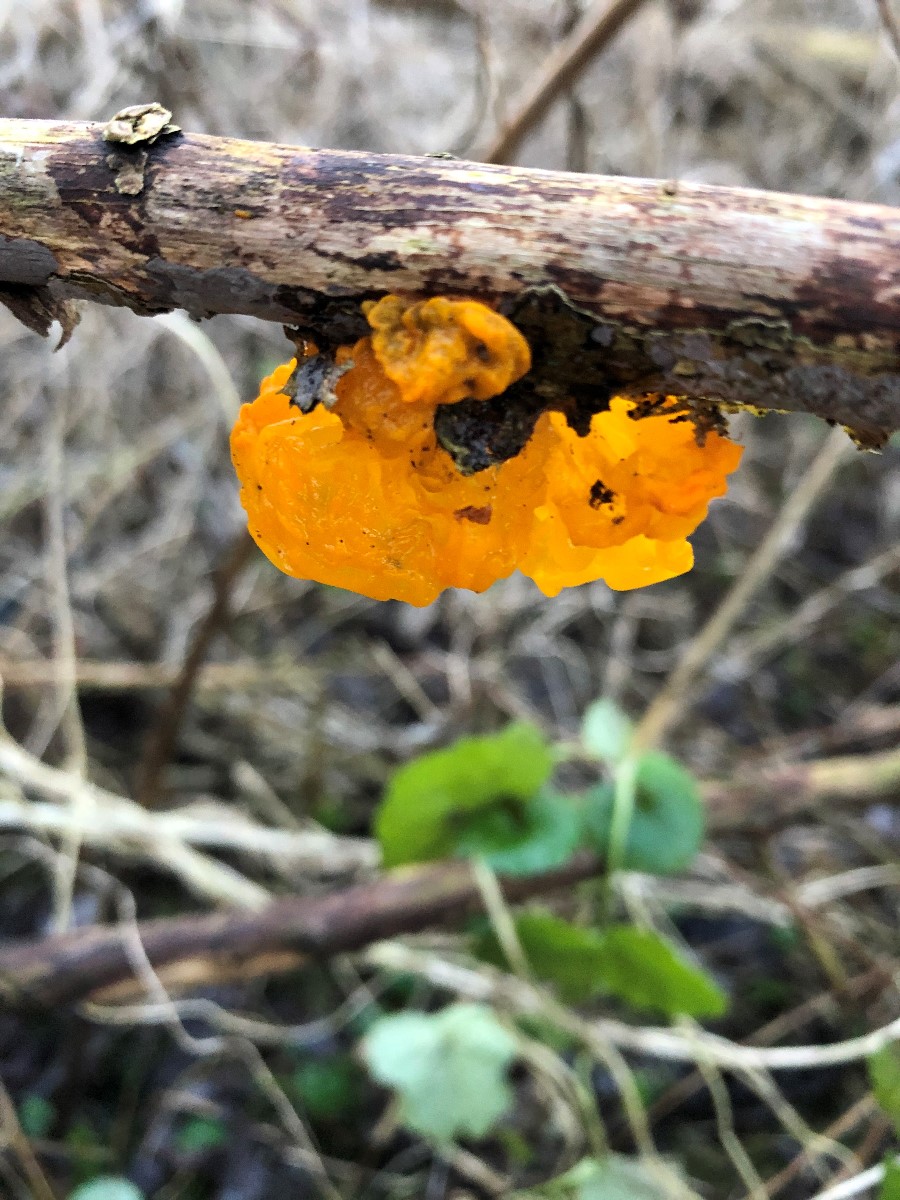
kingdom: Fungi
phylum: Basidiomycota
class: Tremellomycetes
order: Tremellales
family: Tremellaceae
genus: Tremella
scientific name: Tremella mesenterica
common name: gul bævresvamp
